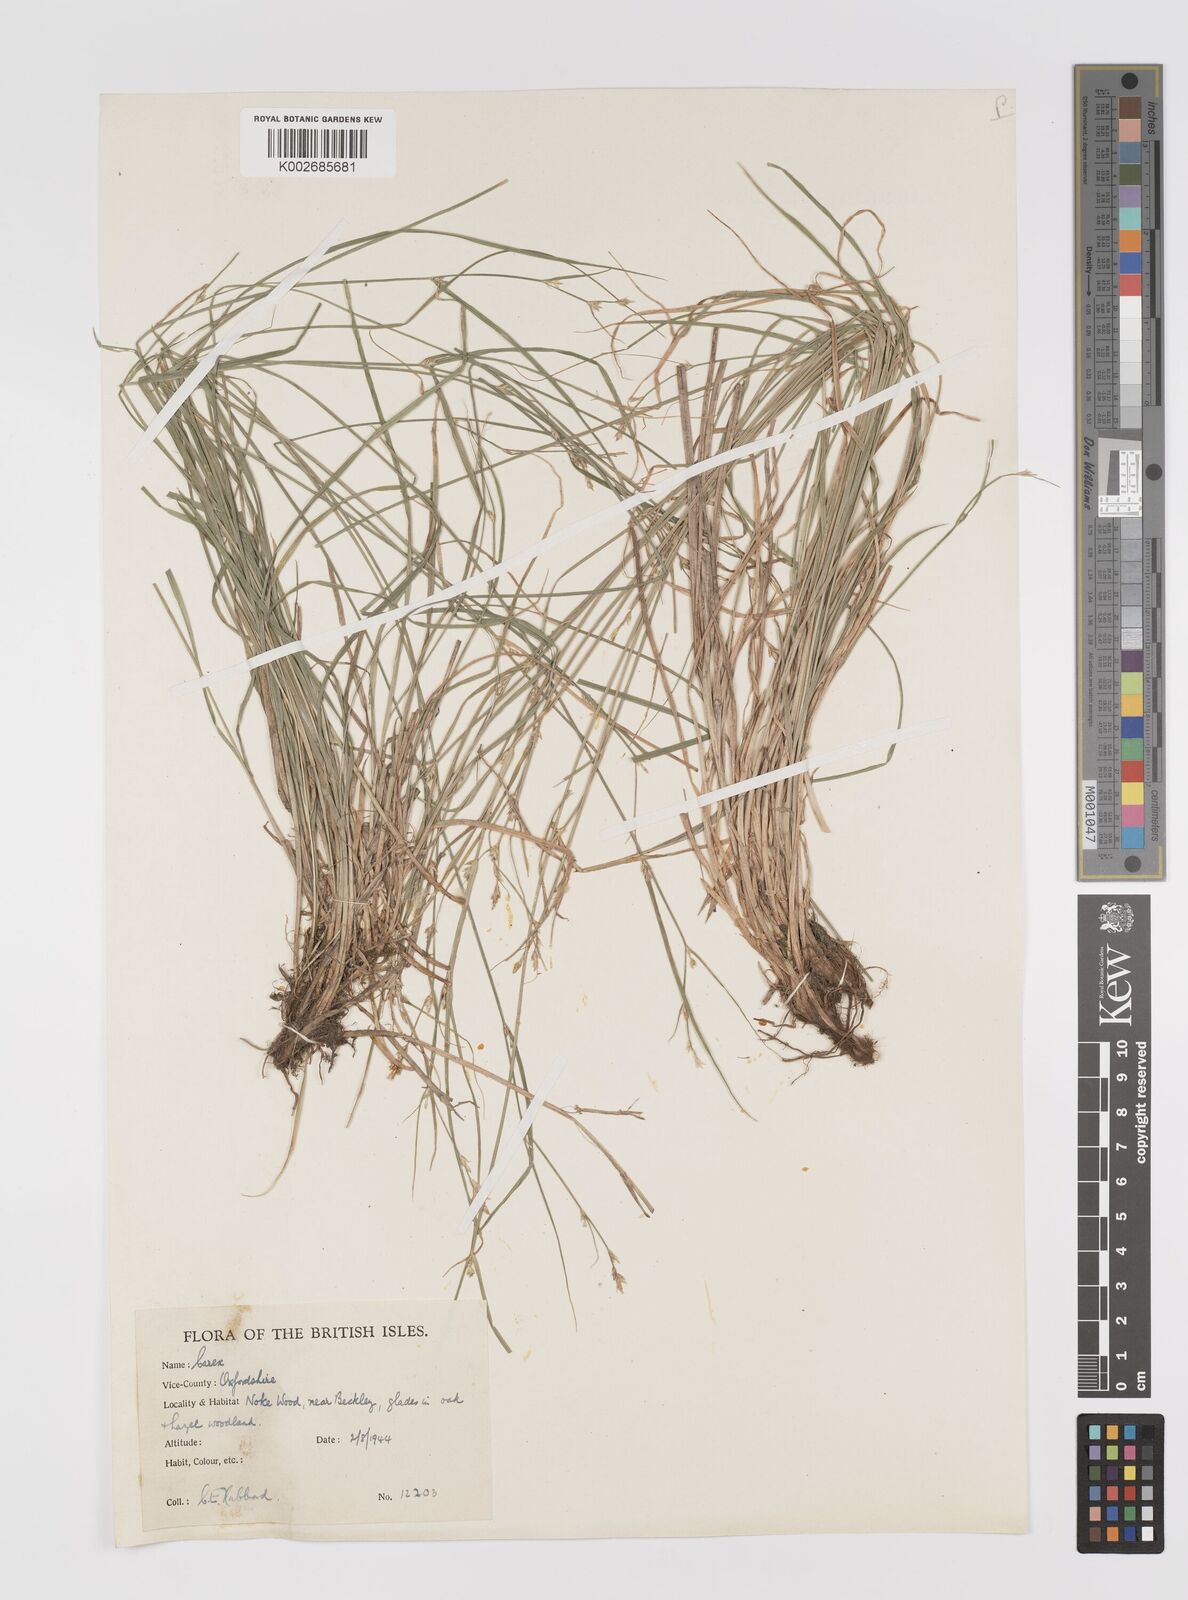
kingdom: Plantae
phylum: Tracheophyta
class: Liliopsida
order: Poales
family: Cyperaceae
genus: Carex
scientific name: Carex remota
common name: Remote sedge
